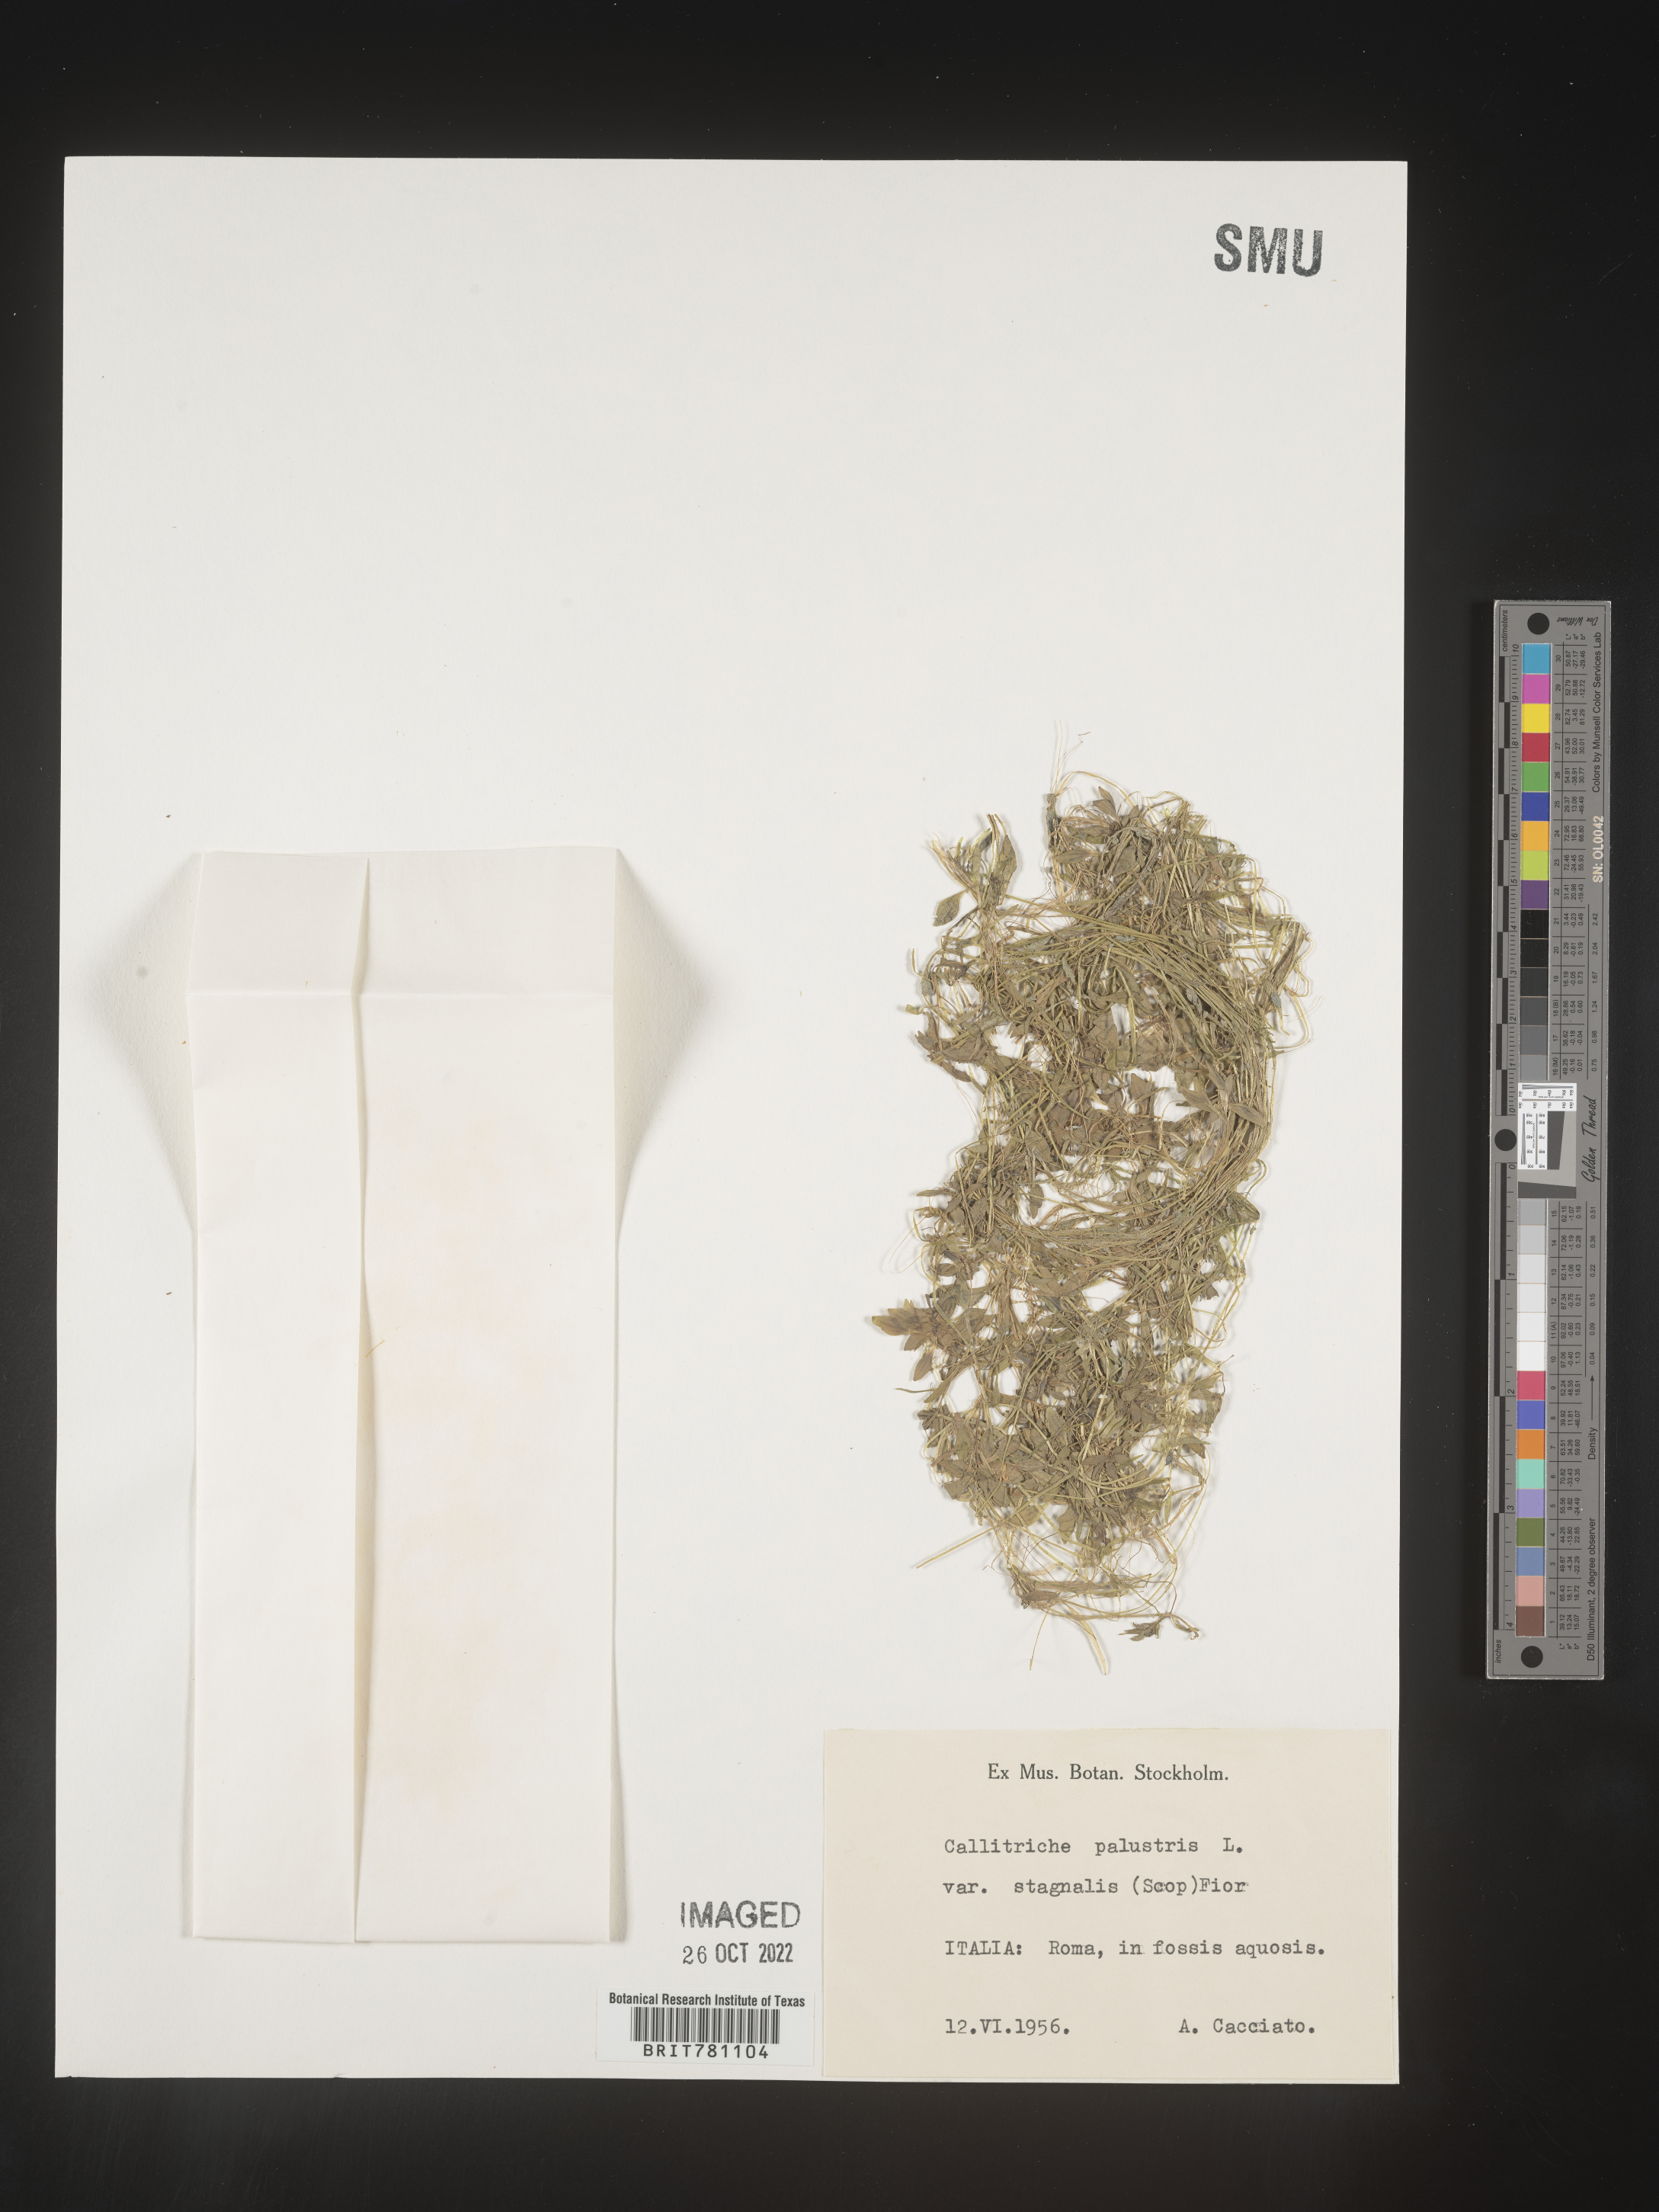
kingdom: Plantae
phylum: Tracheophyta
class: Magnoliopsida
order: Lamiales
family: Plantaginaceae
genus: Callitriche
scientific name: Callitriche
